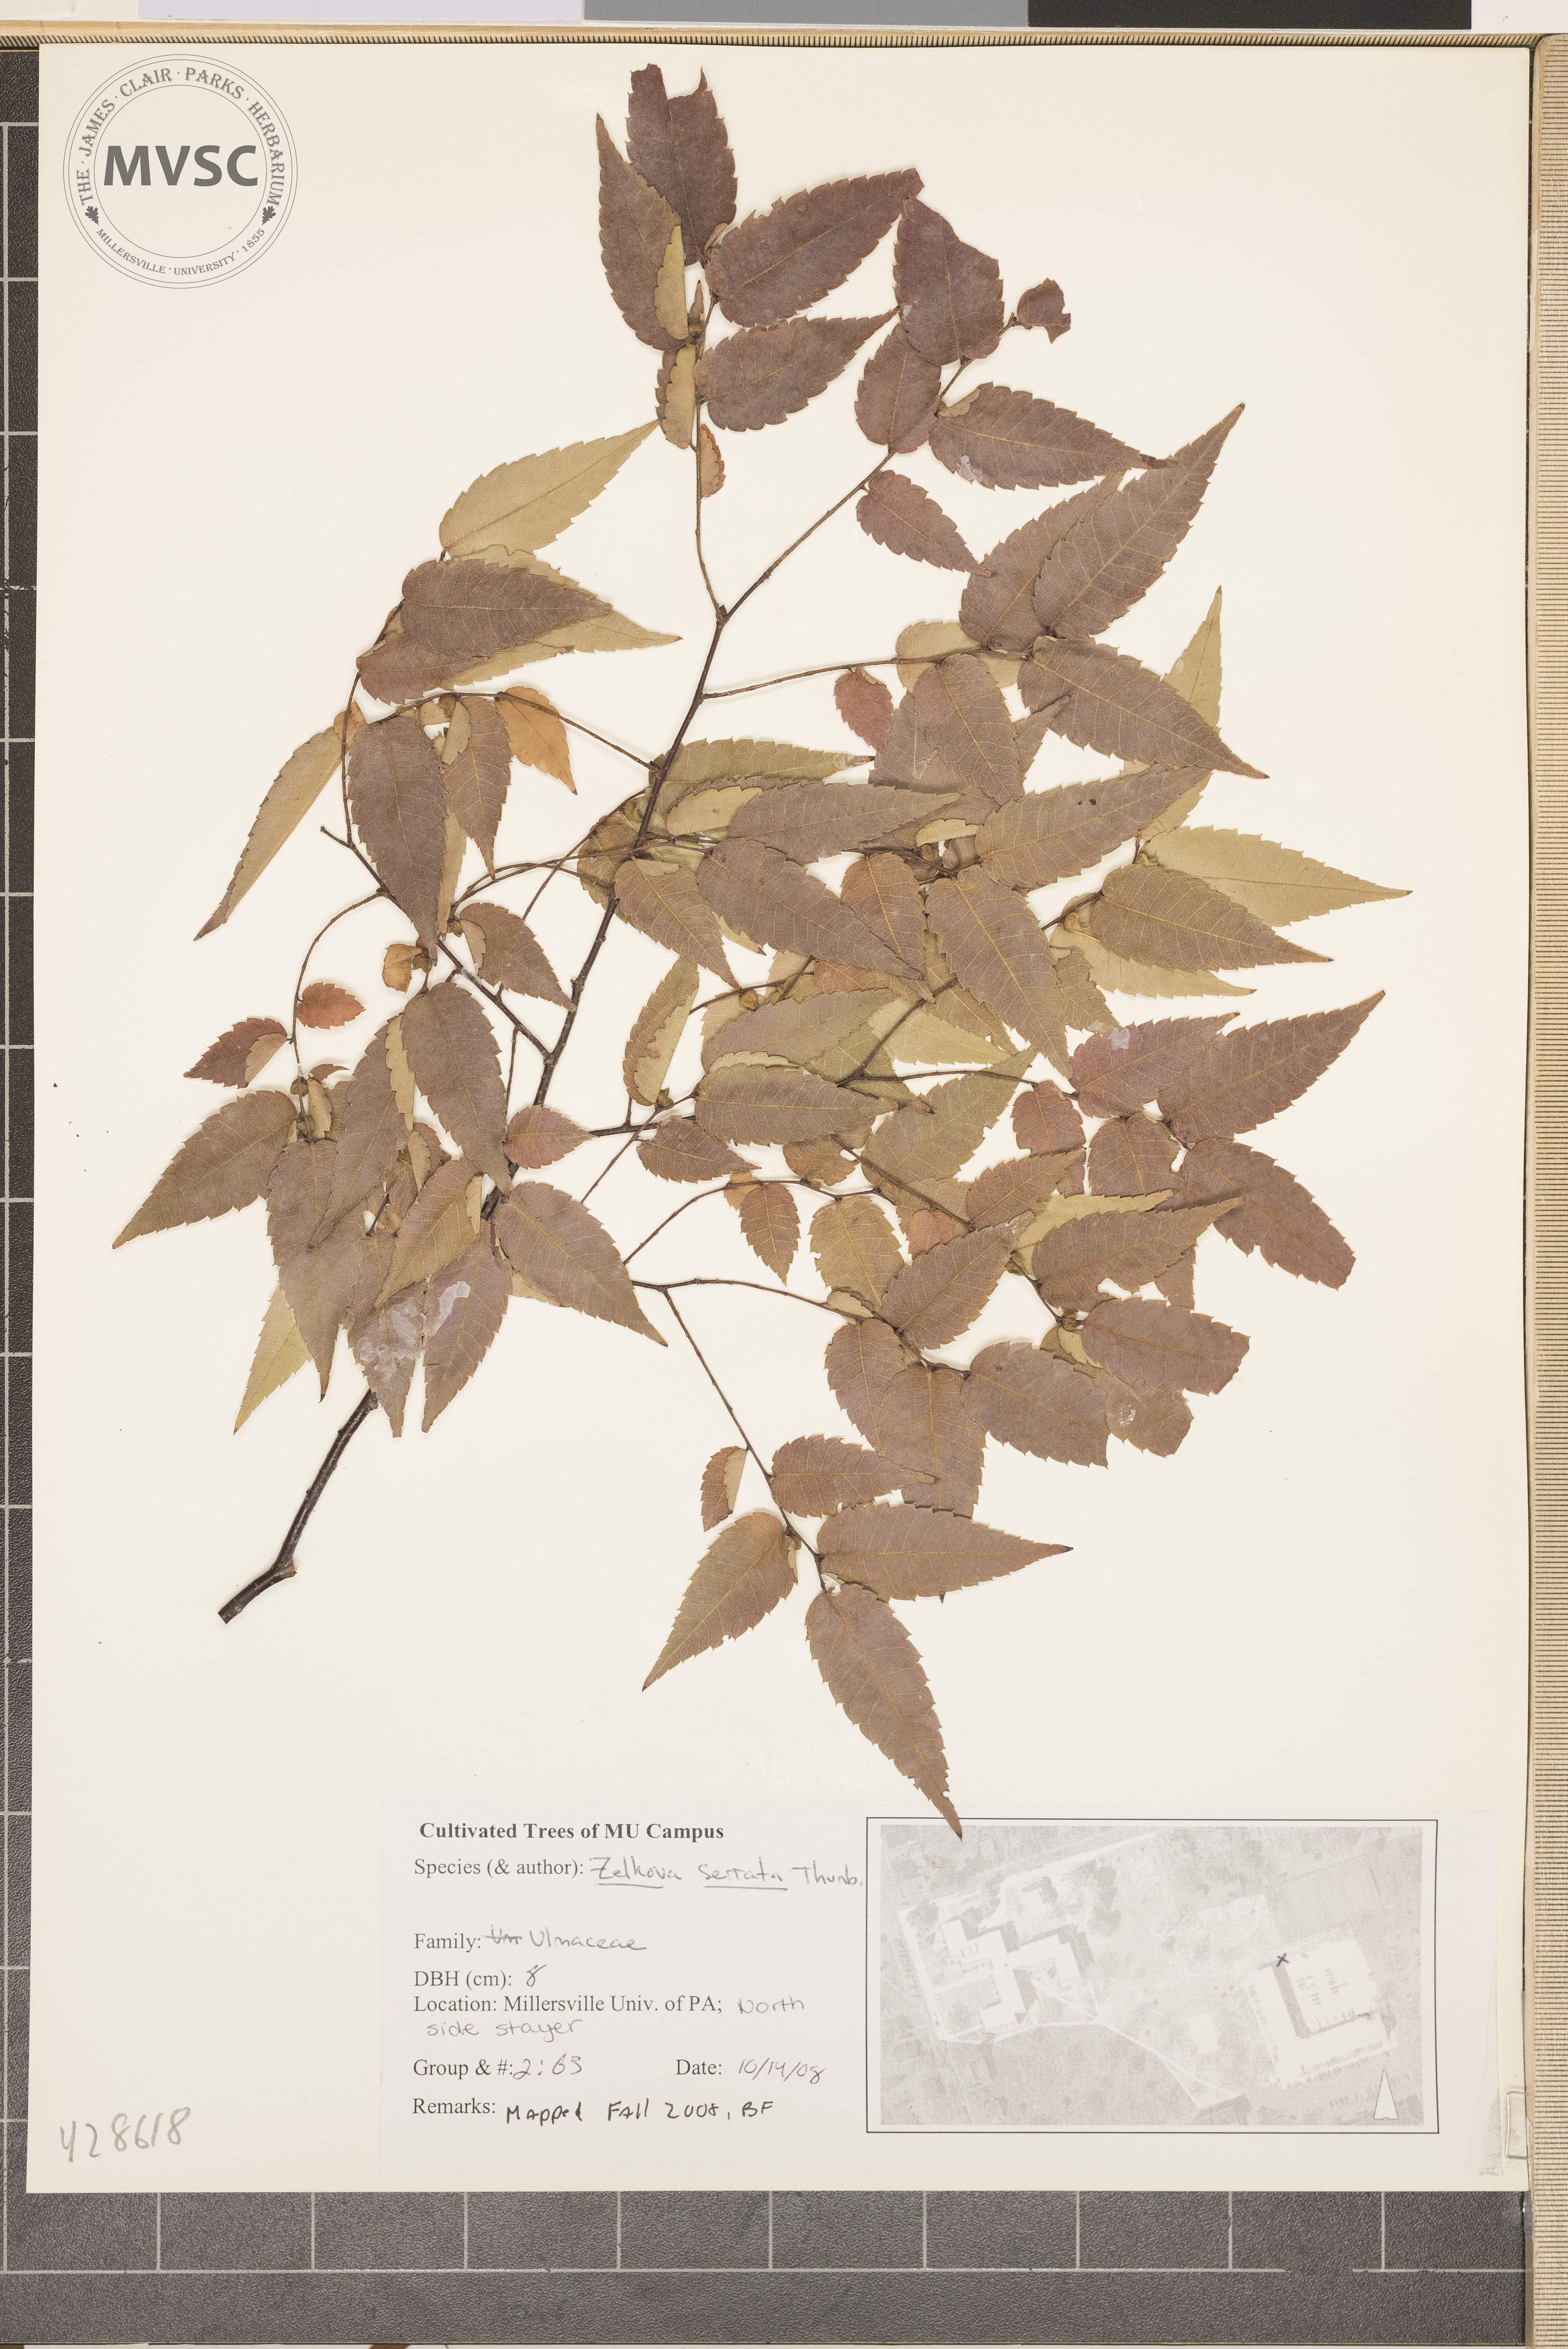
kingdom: Plantae
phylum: Tracheophyta
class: Magnoliopsida
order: Rosales
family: Ulmaceae
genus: Zelkova
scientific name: Zelkova serrata
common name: Japanese Zelkova
